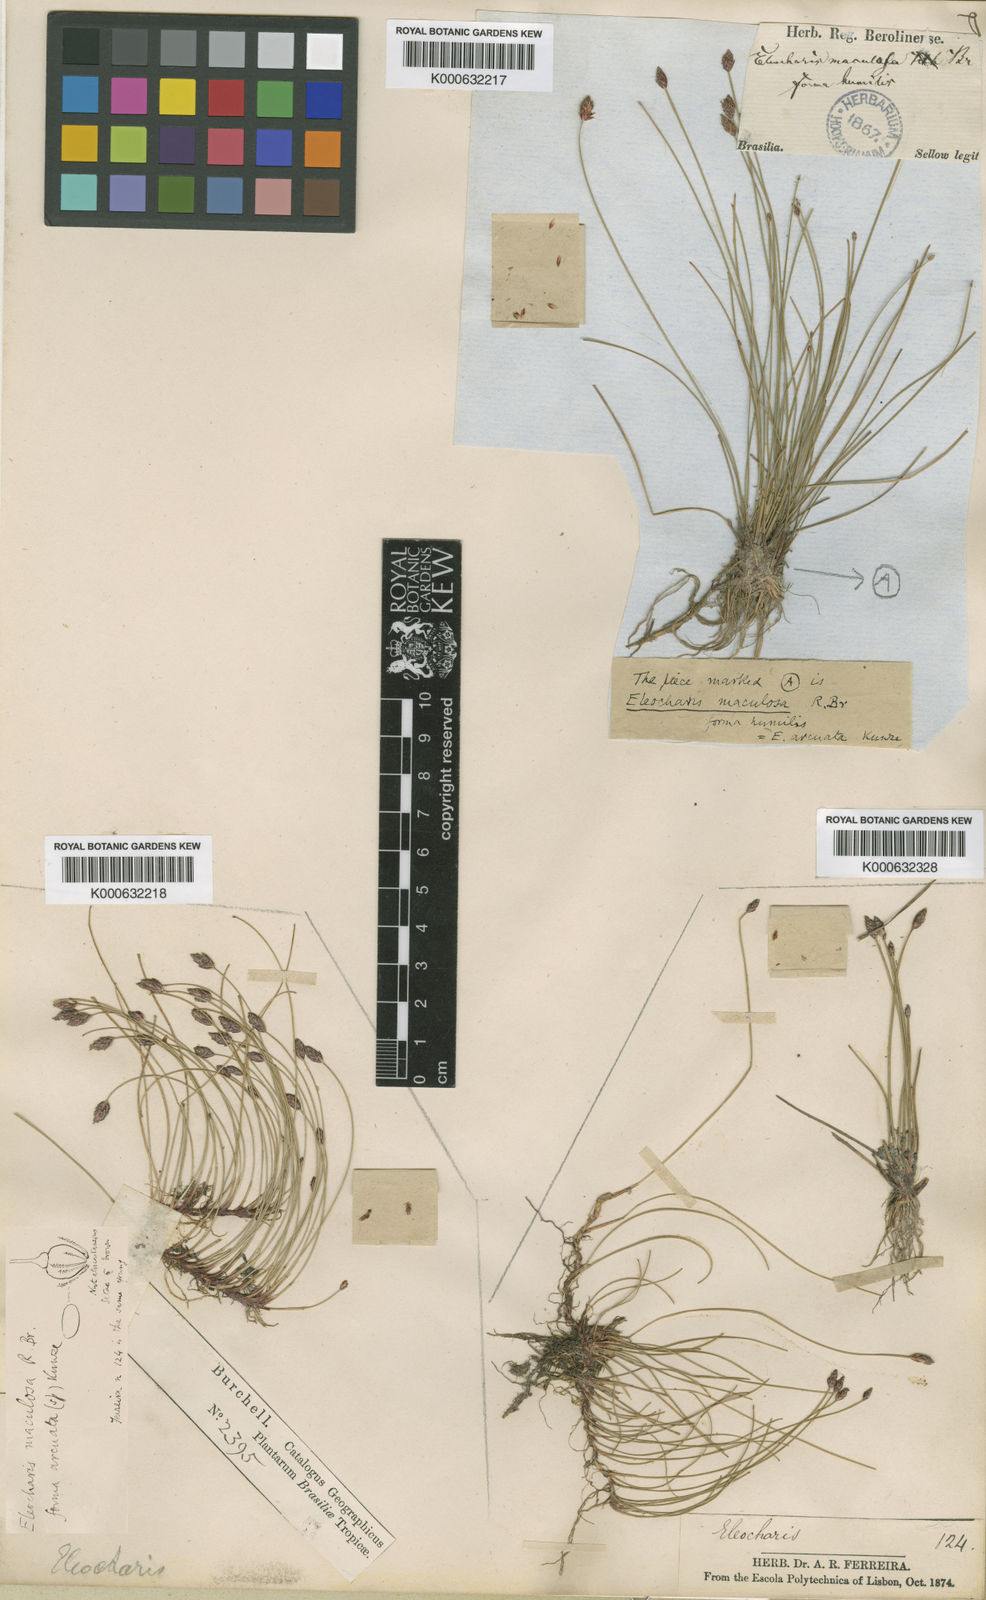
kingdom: Plantae
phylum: Tracheophyta
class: Liliopsida
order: Poales
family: Cyperaceae
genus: Eleocharis
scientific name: Eleocharis fuscopurpurea
